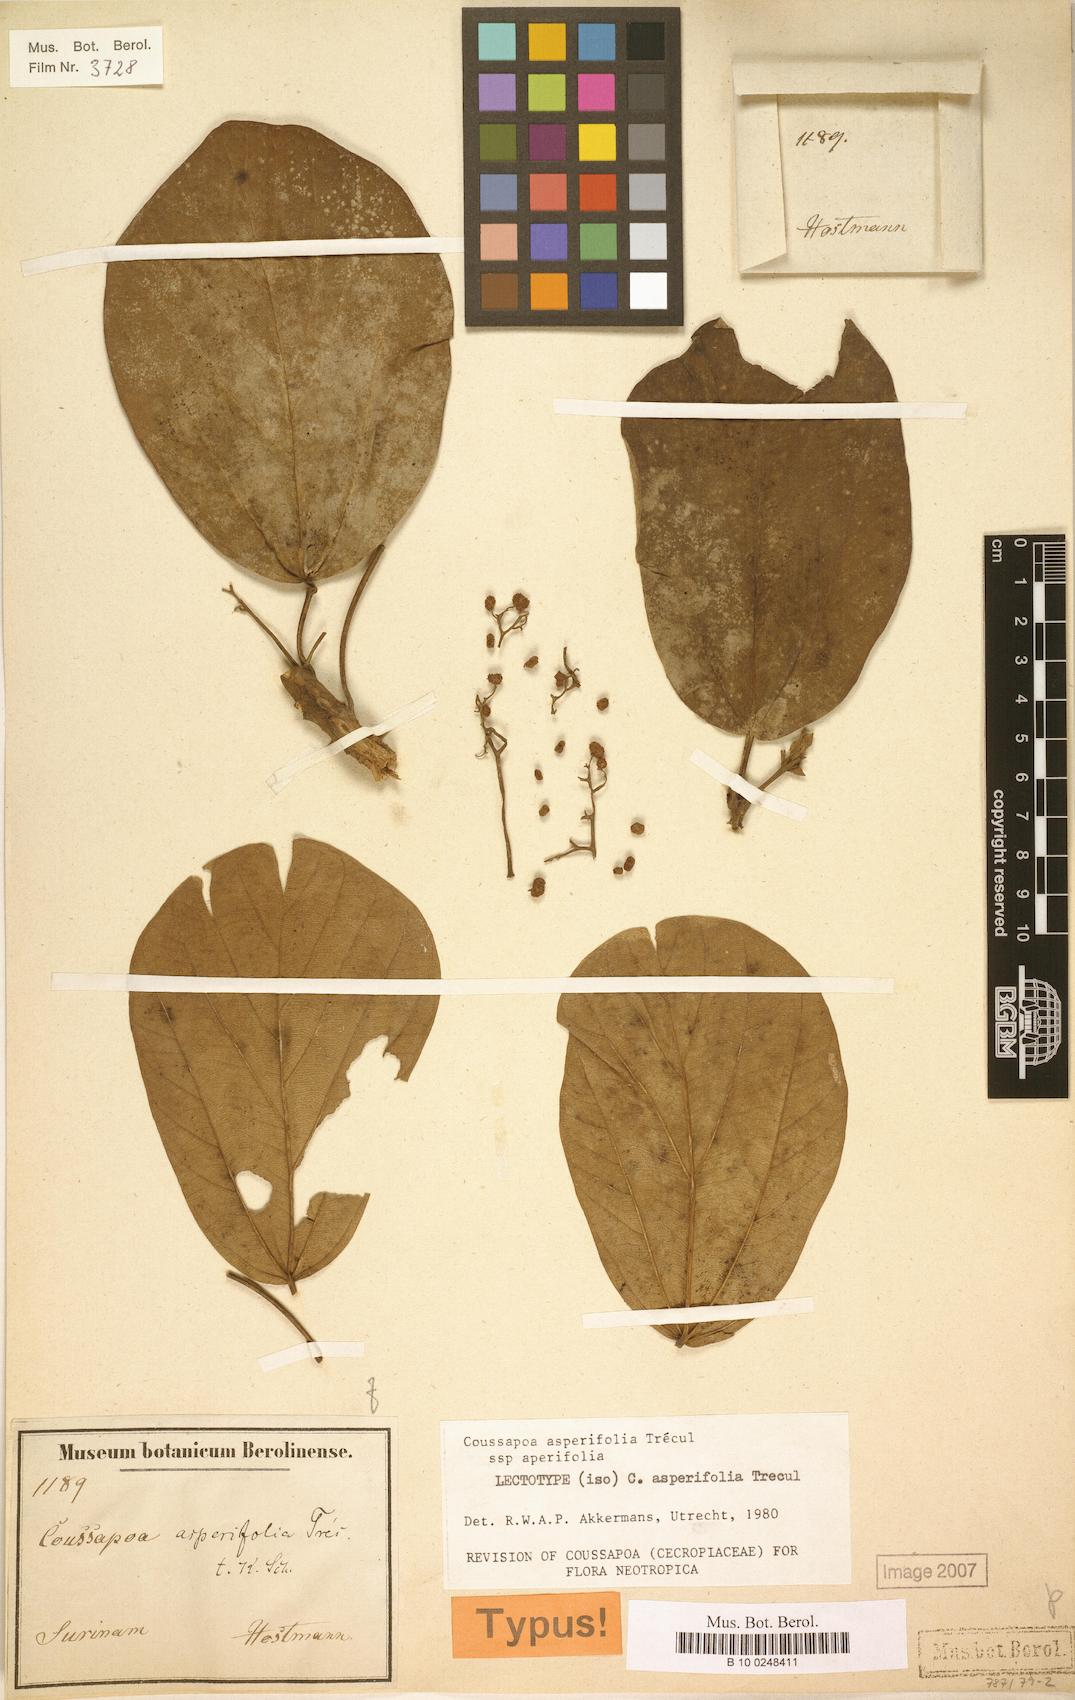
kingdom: Plantae
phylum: Tracheophyta
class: Magnoliopsida
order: Rosales
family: Urticaceae
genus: Coussapoa
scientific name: Coussapoa asperifolia
